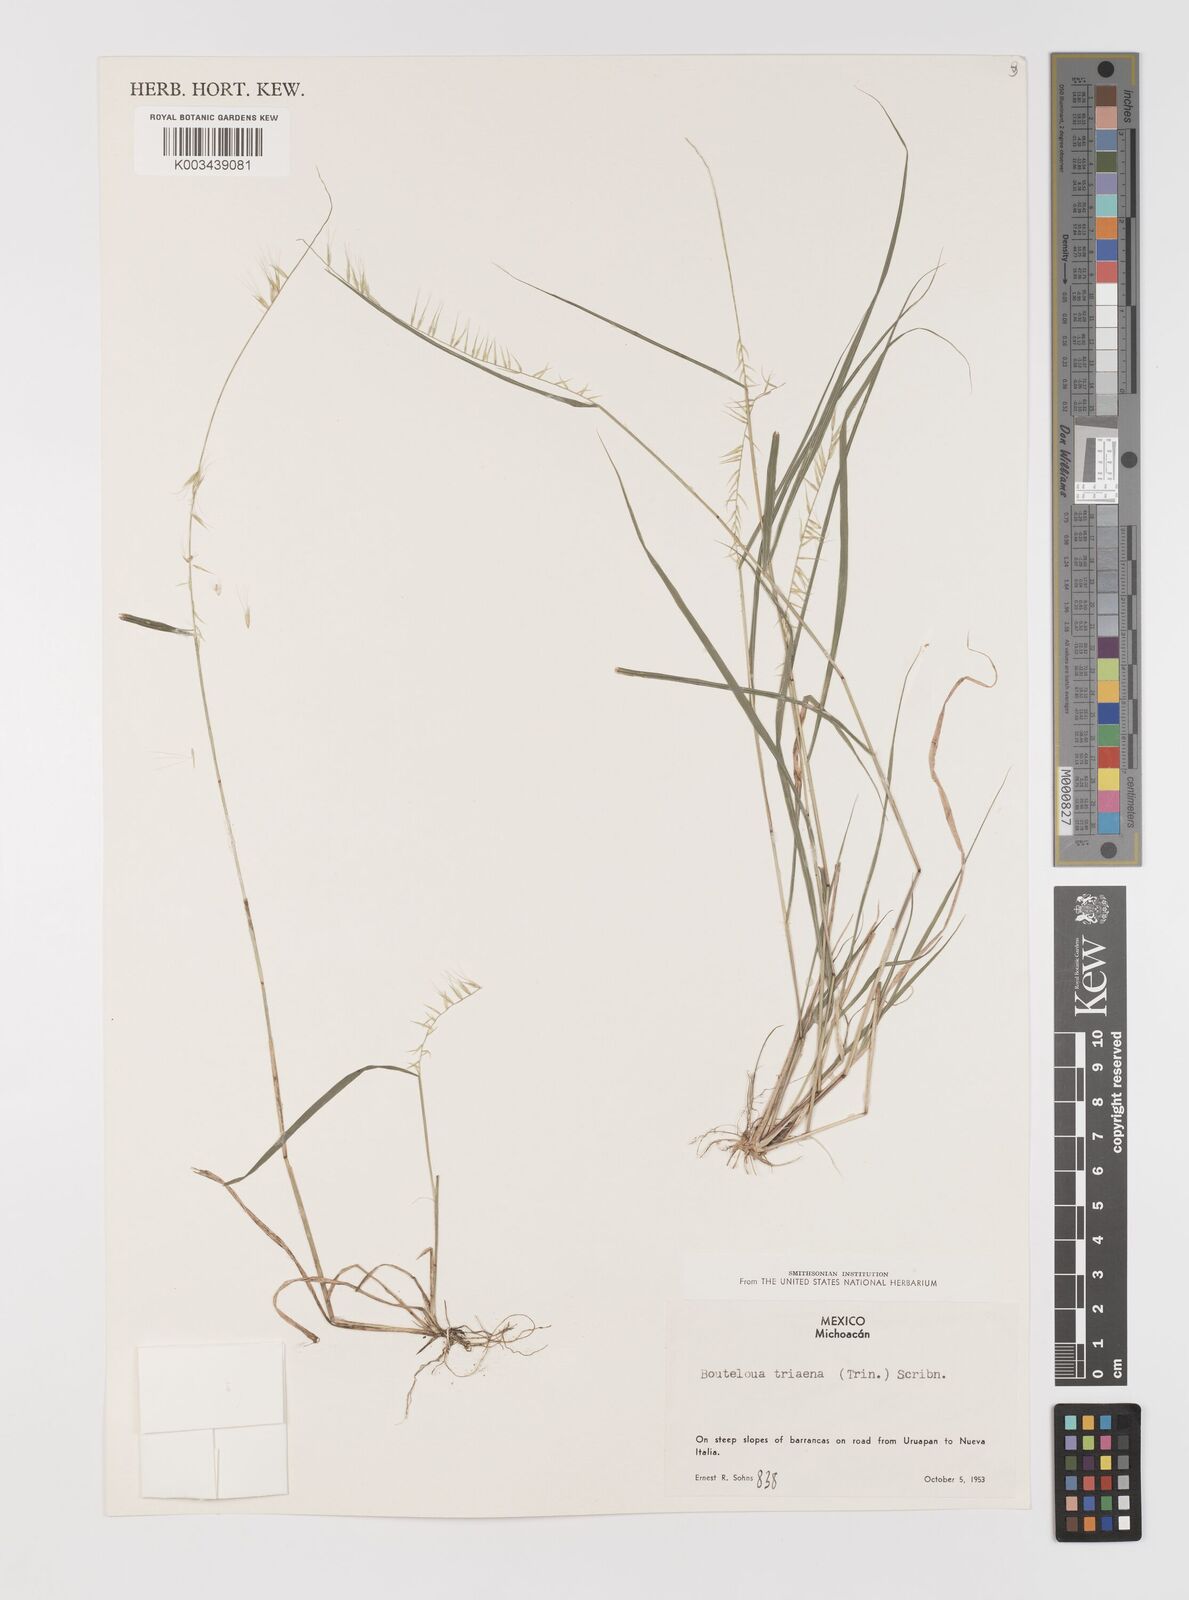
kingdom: Plantae
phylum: Tracheophyta
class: Liliopsida
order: Poales
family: Poaceae
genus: Bouteloua
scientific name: Bouteloua triaena
